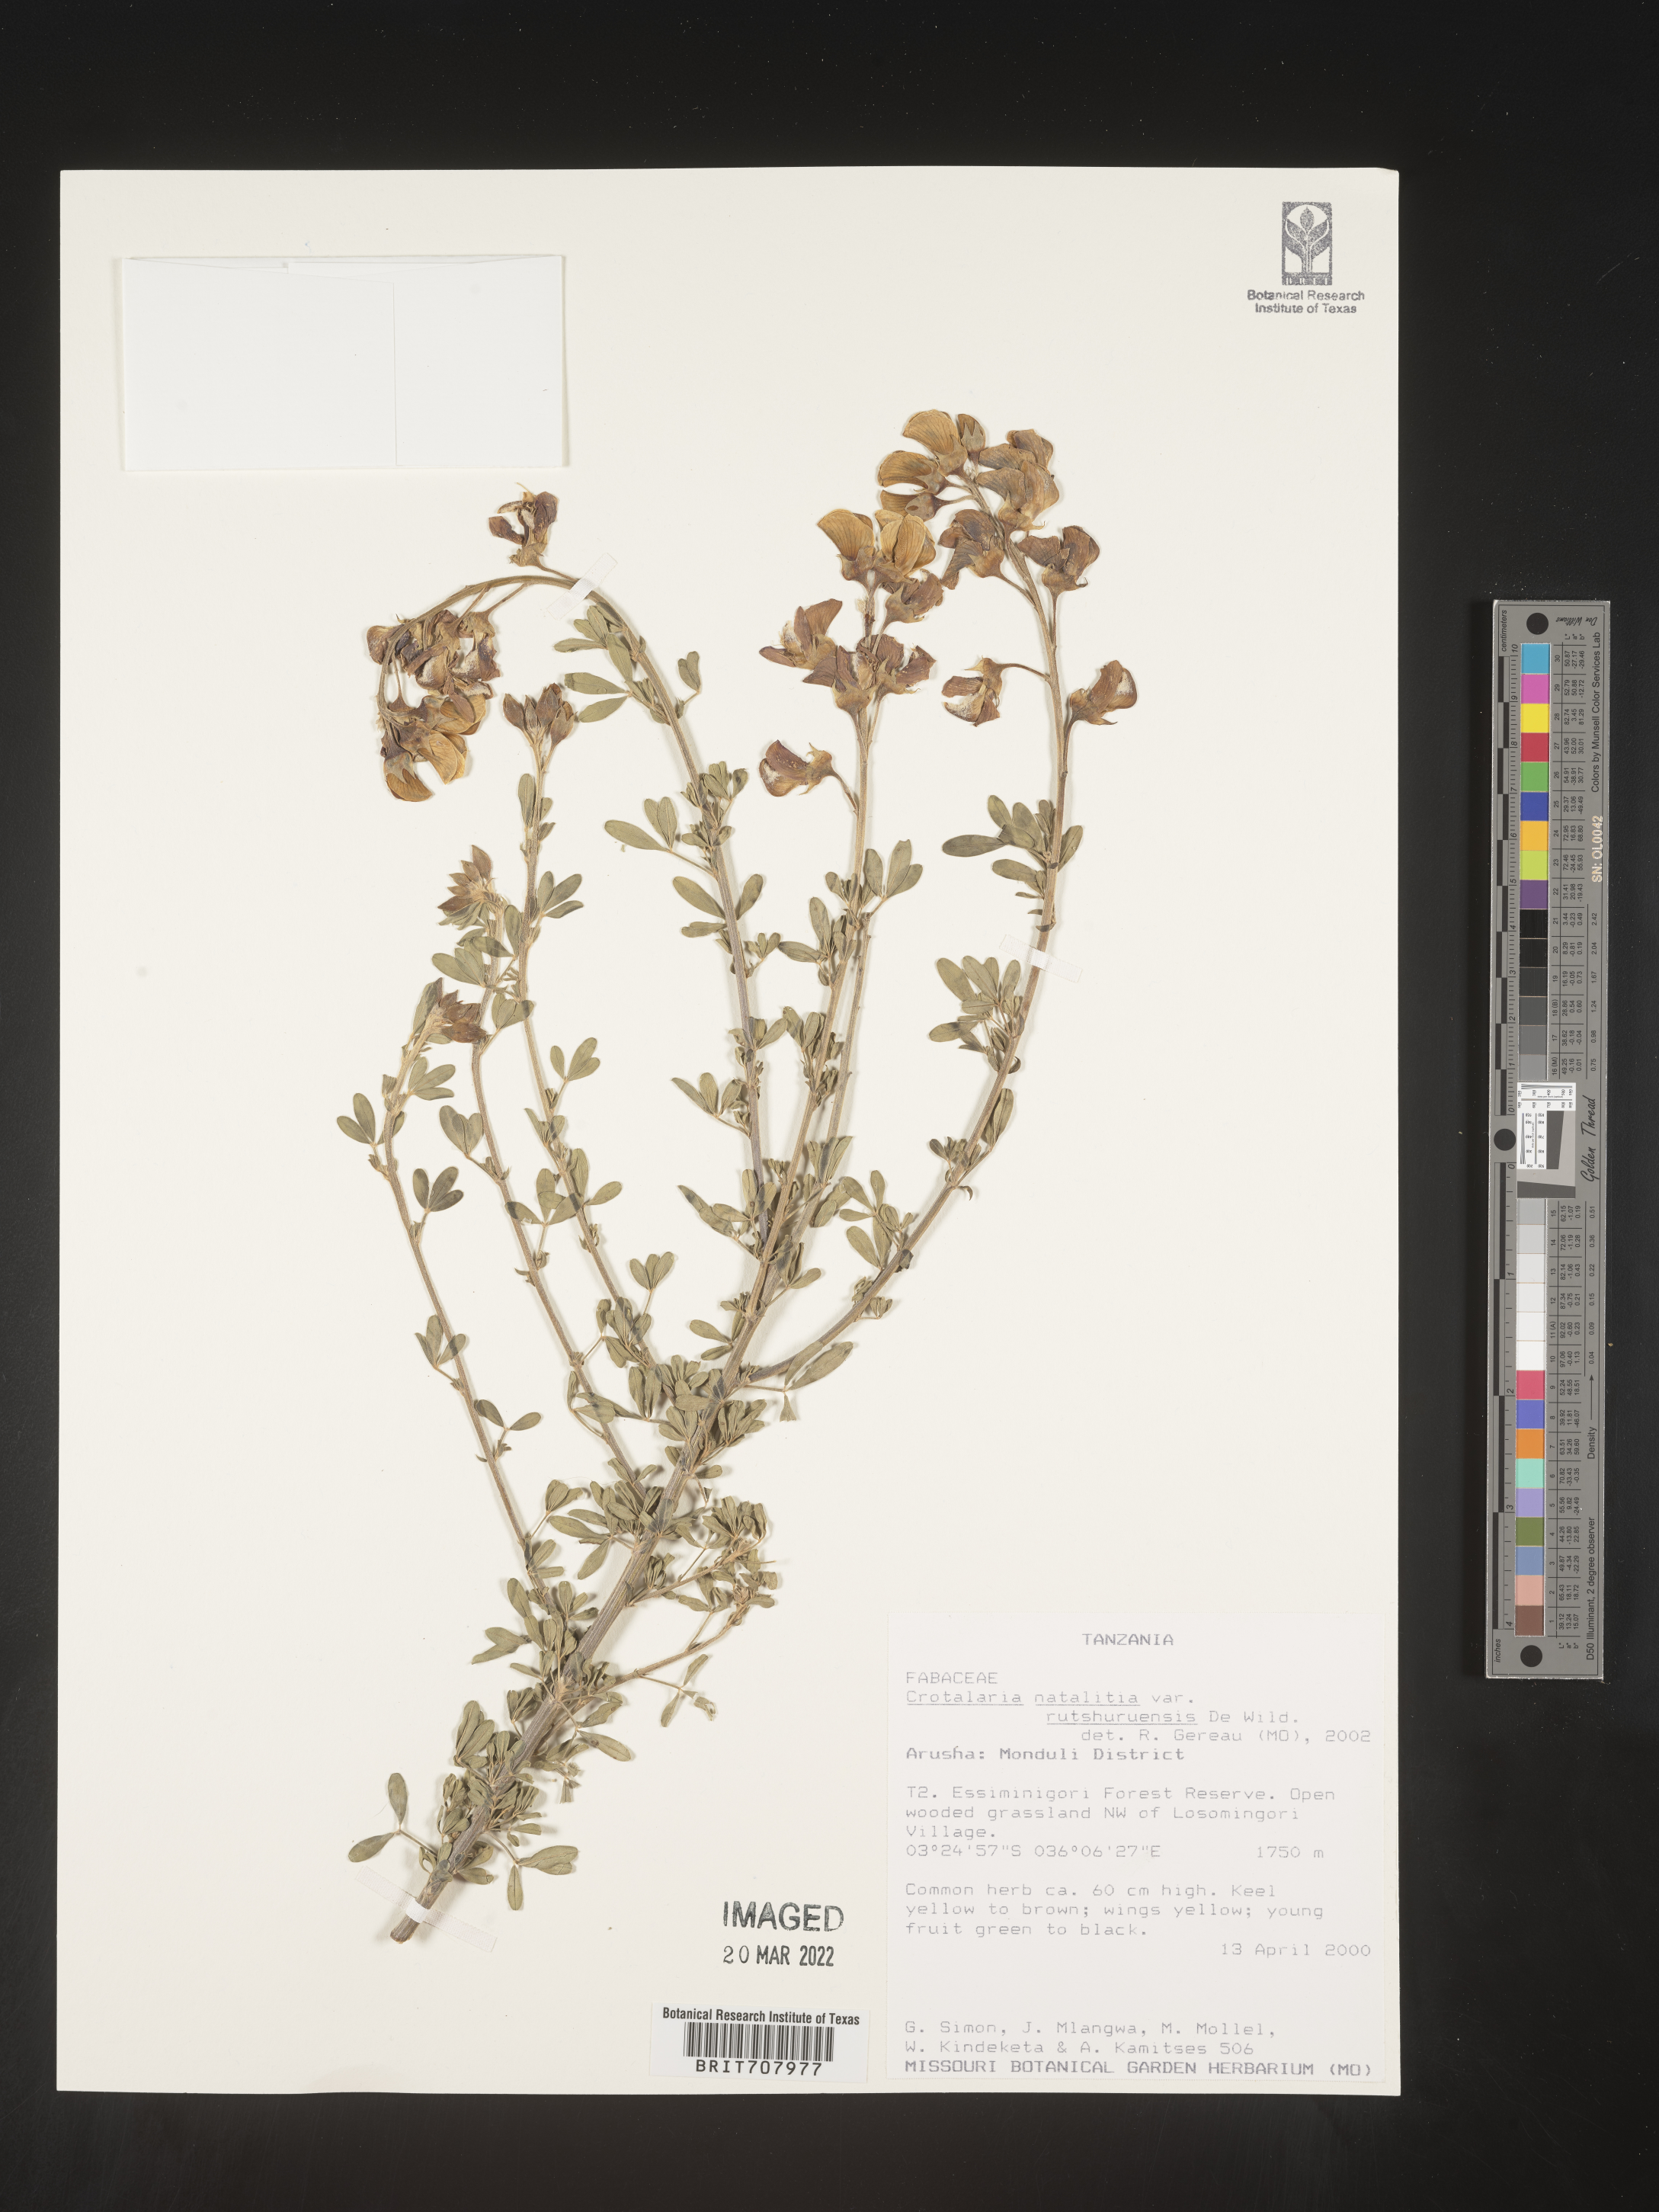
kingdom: Plantae
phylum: Tracheophyta
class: Magnoliopsida
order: Fabales
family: Fabaceae
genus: Crotalaria
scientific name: Crotalaria
